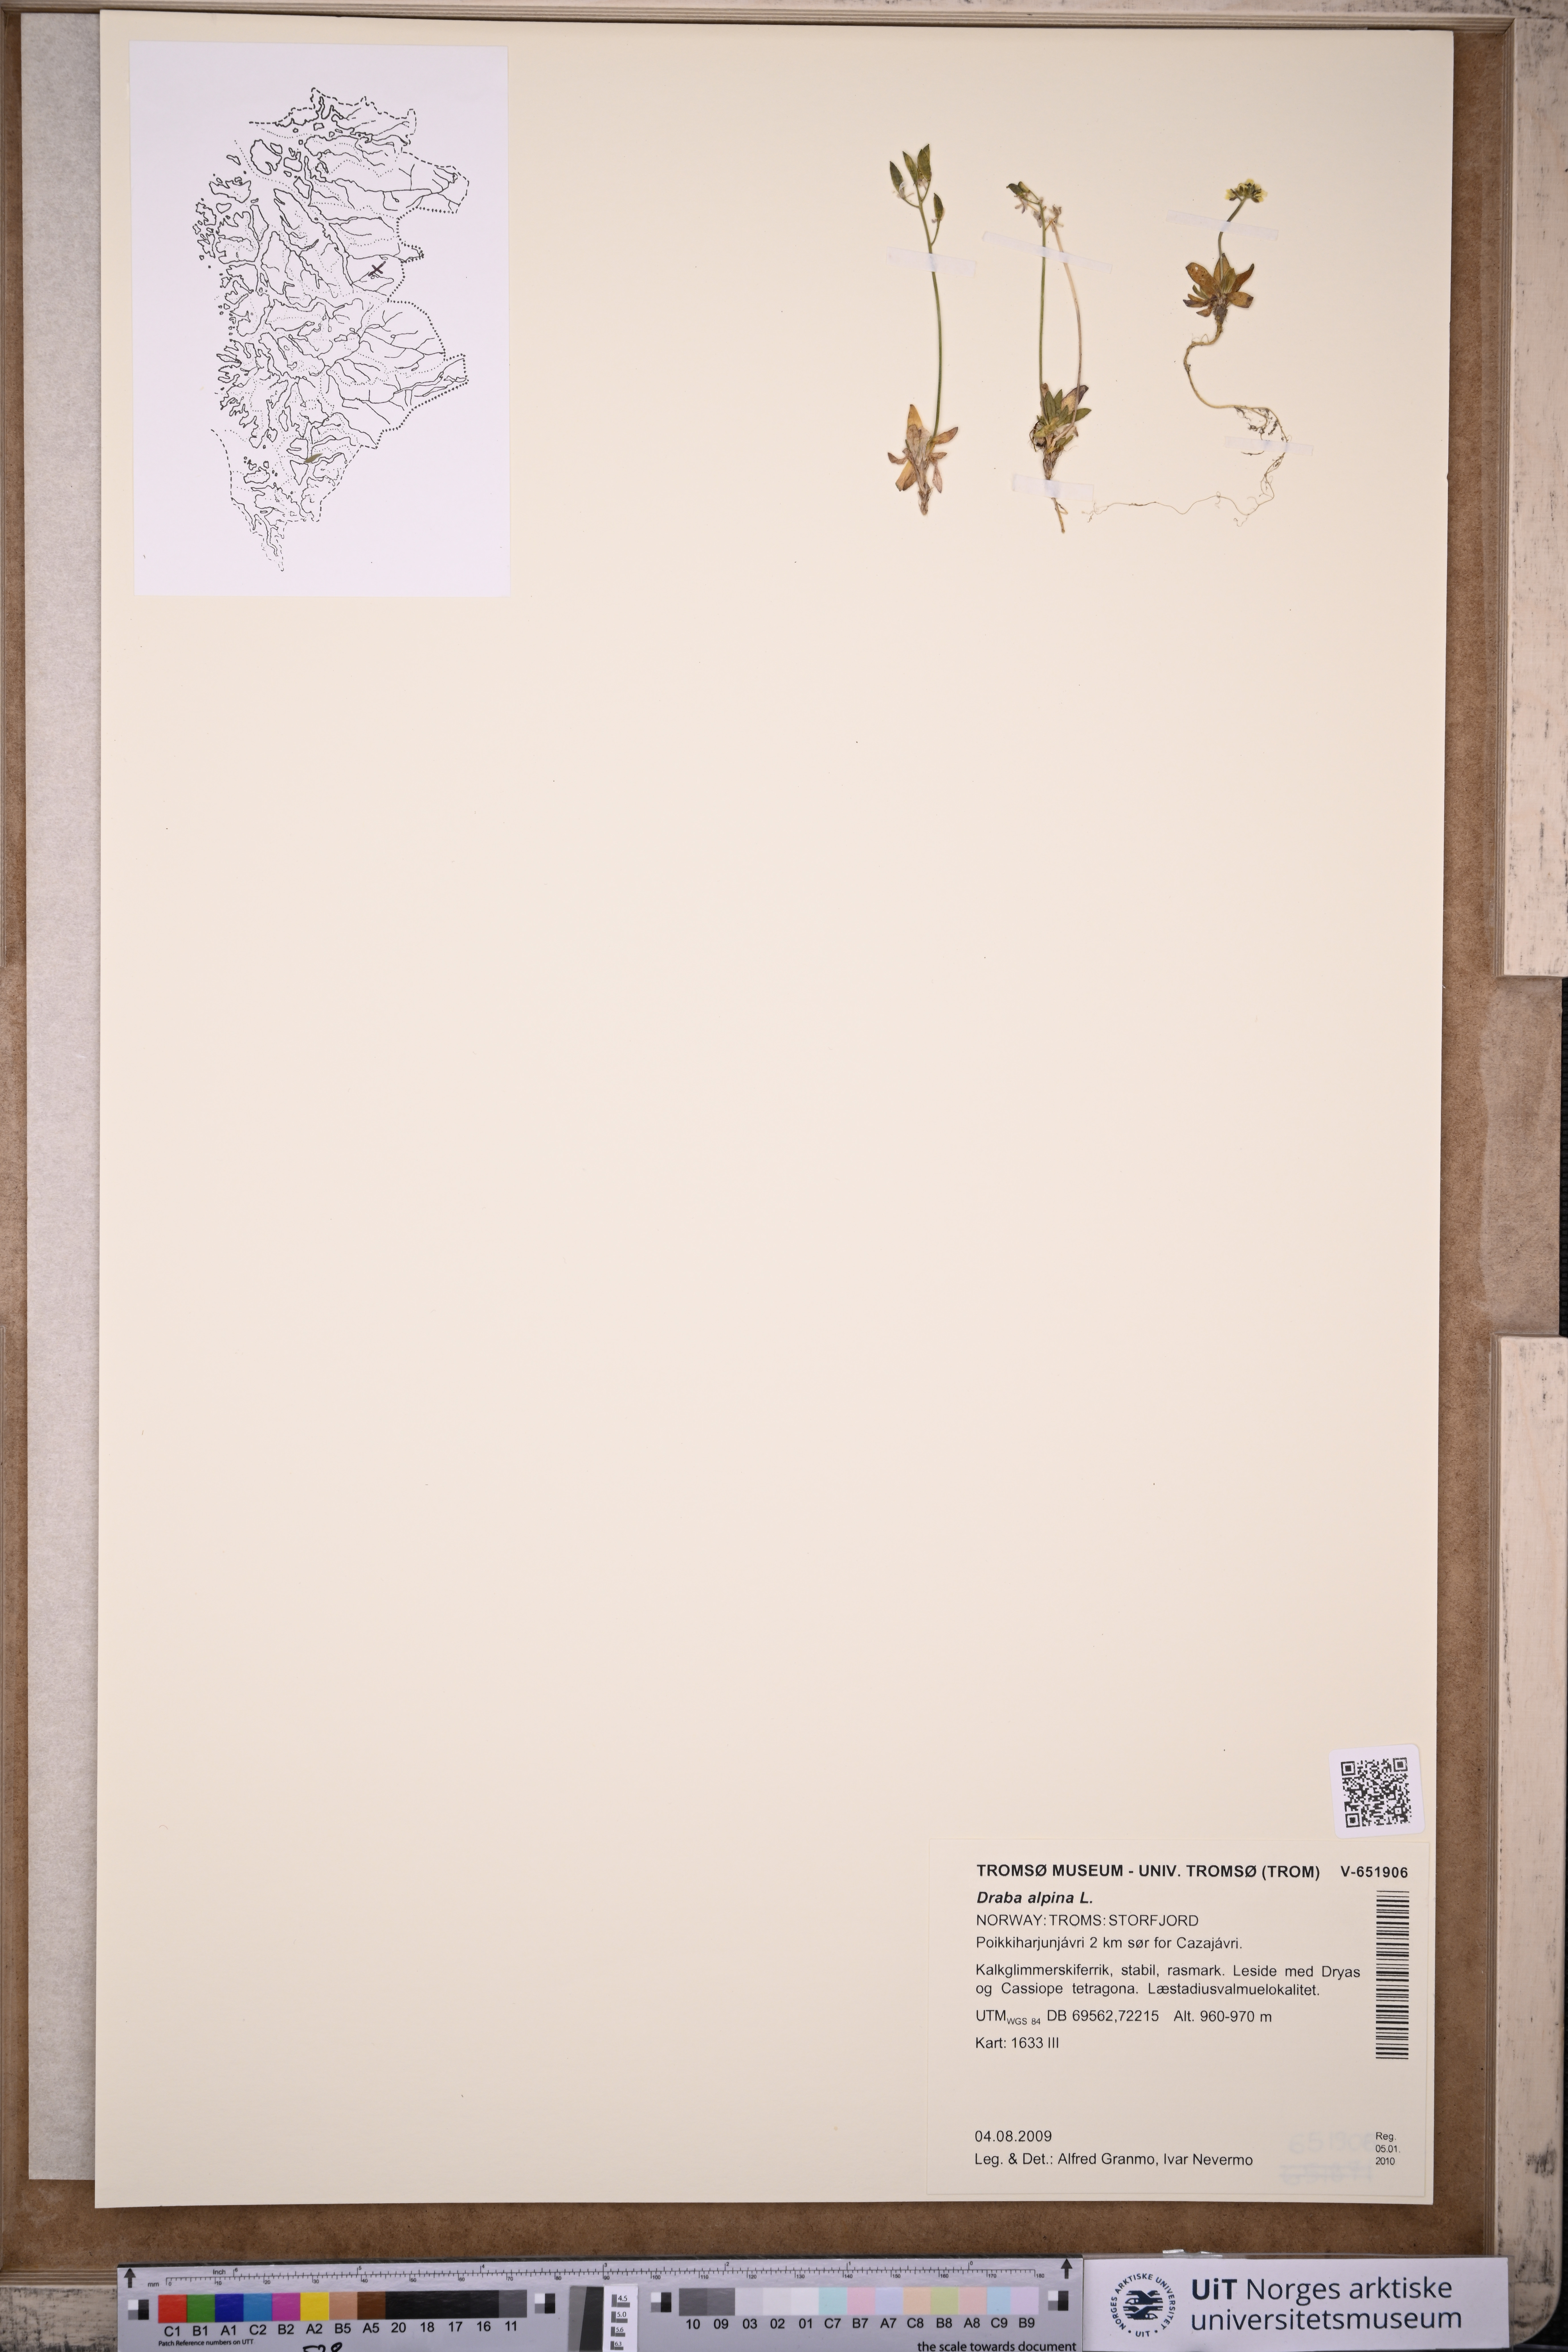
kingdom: Plantae
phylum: Tracheophyta
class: Magnoliopsida
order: Brassicales
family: Brassicaceae
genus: Draba
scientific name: Draba alpina
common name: Alpine draba
